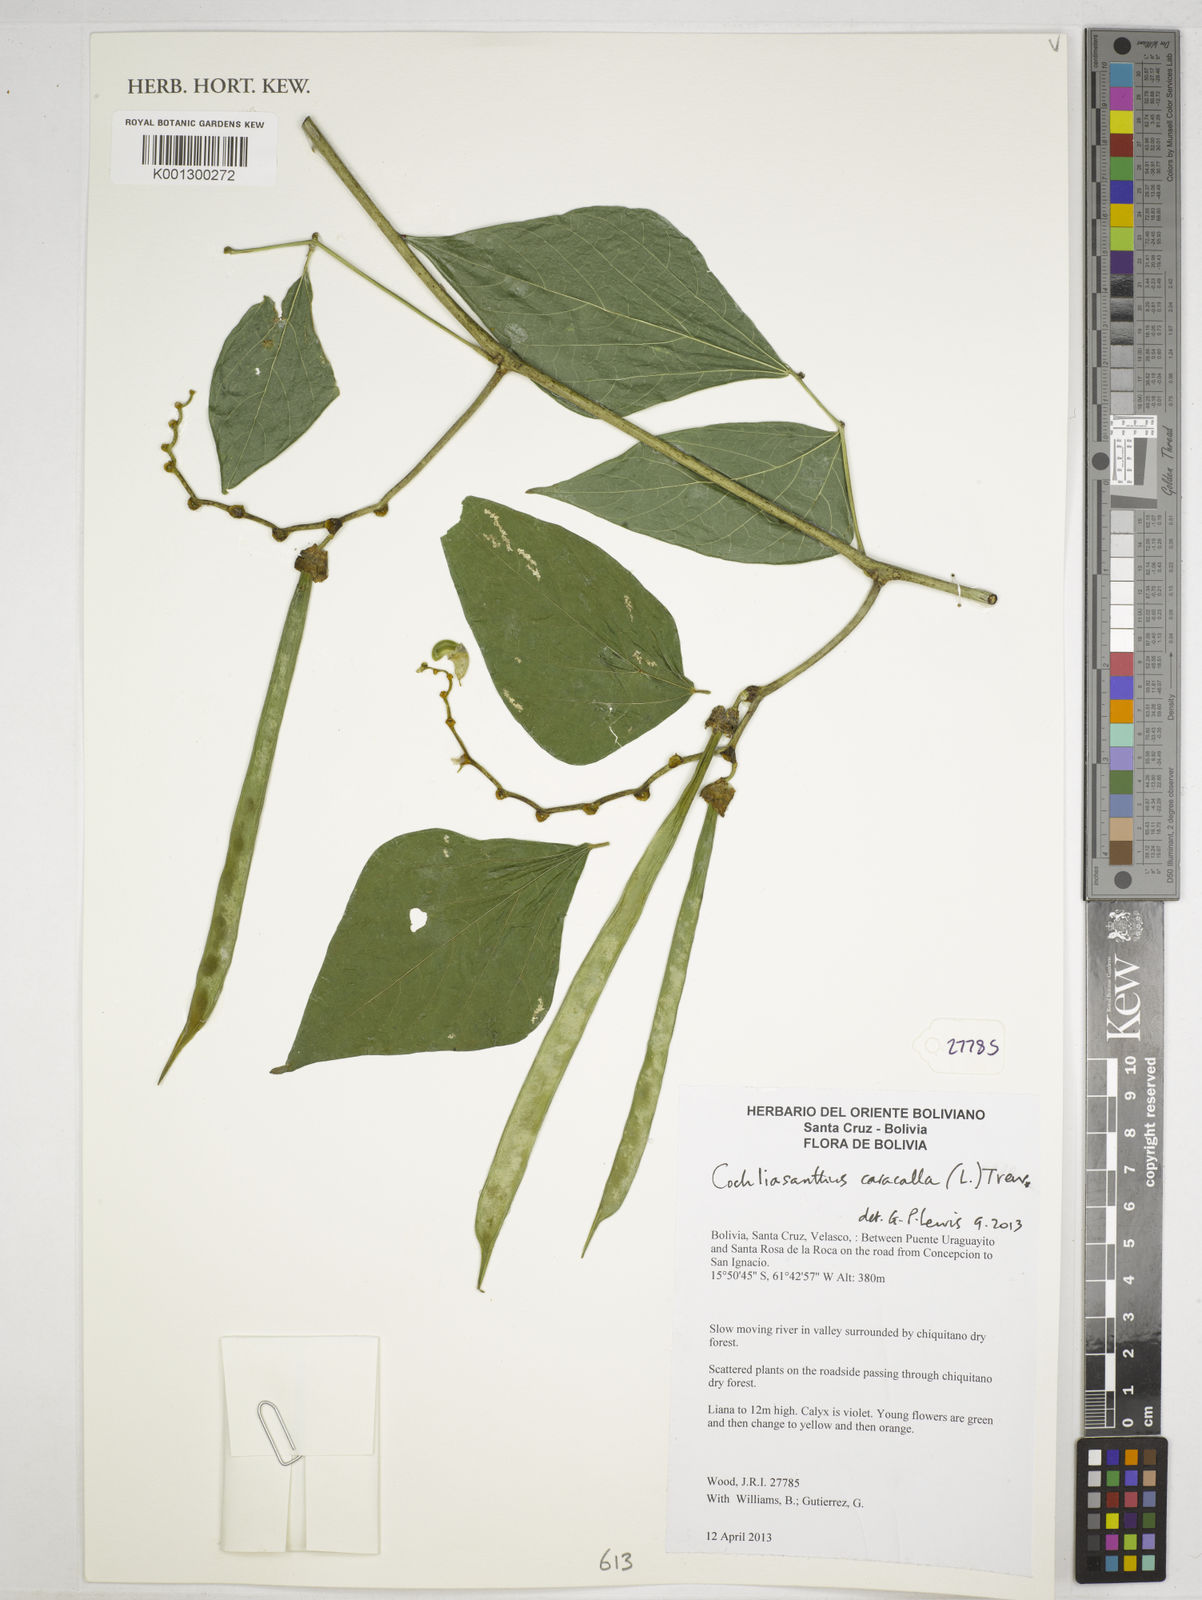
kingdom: Plantae
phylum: Tracheophyta
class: Magnoliopsida
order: Fabales
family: Fabaceae
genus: Cochliasanthus
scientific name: Cochliasanthus caracalla
